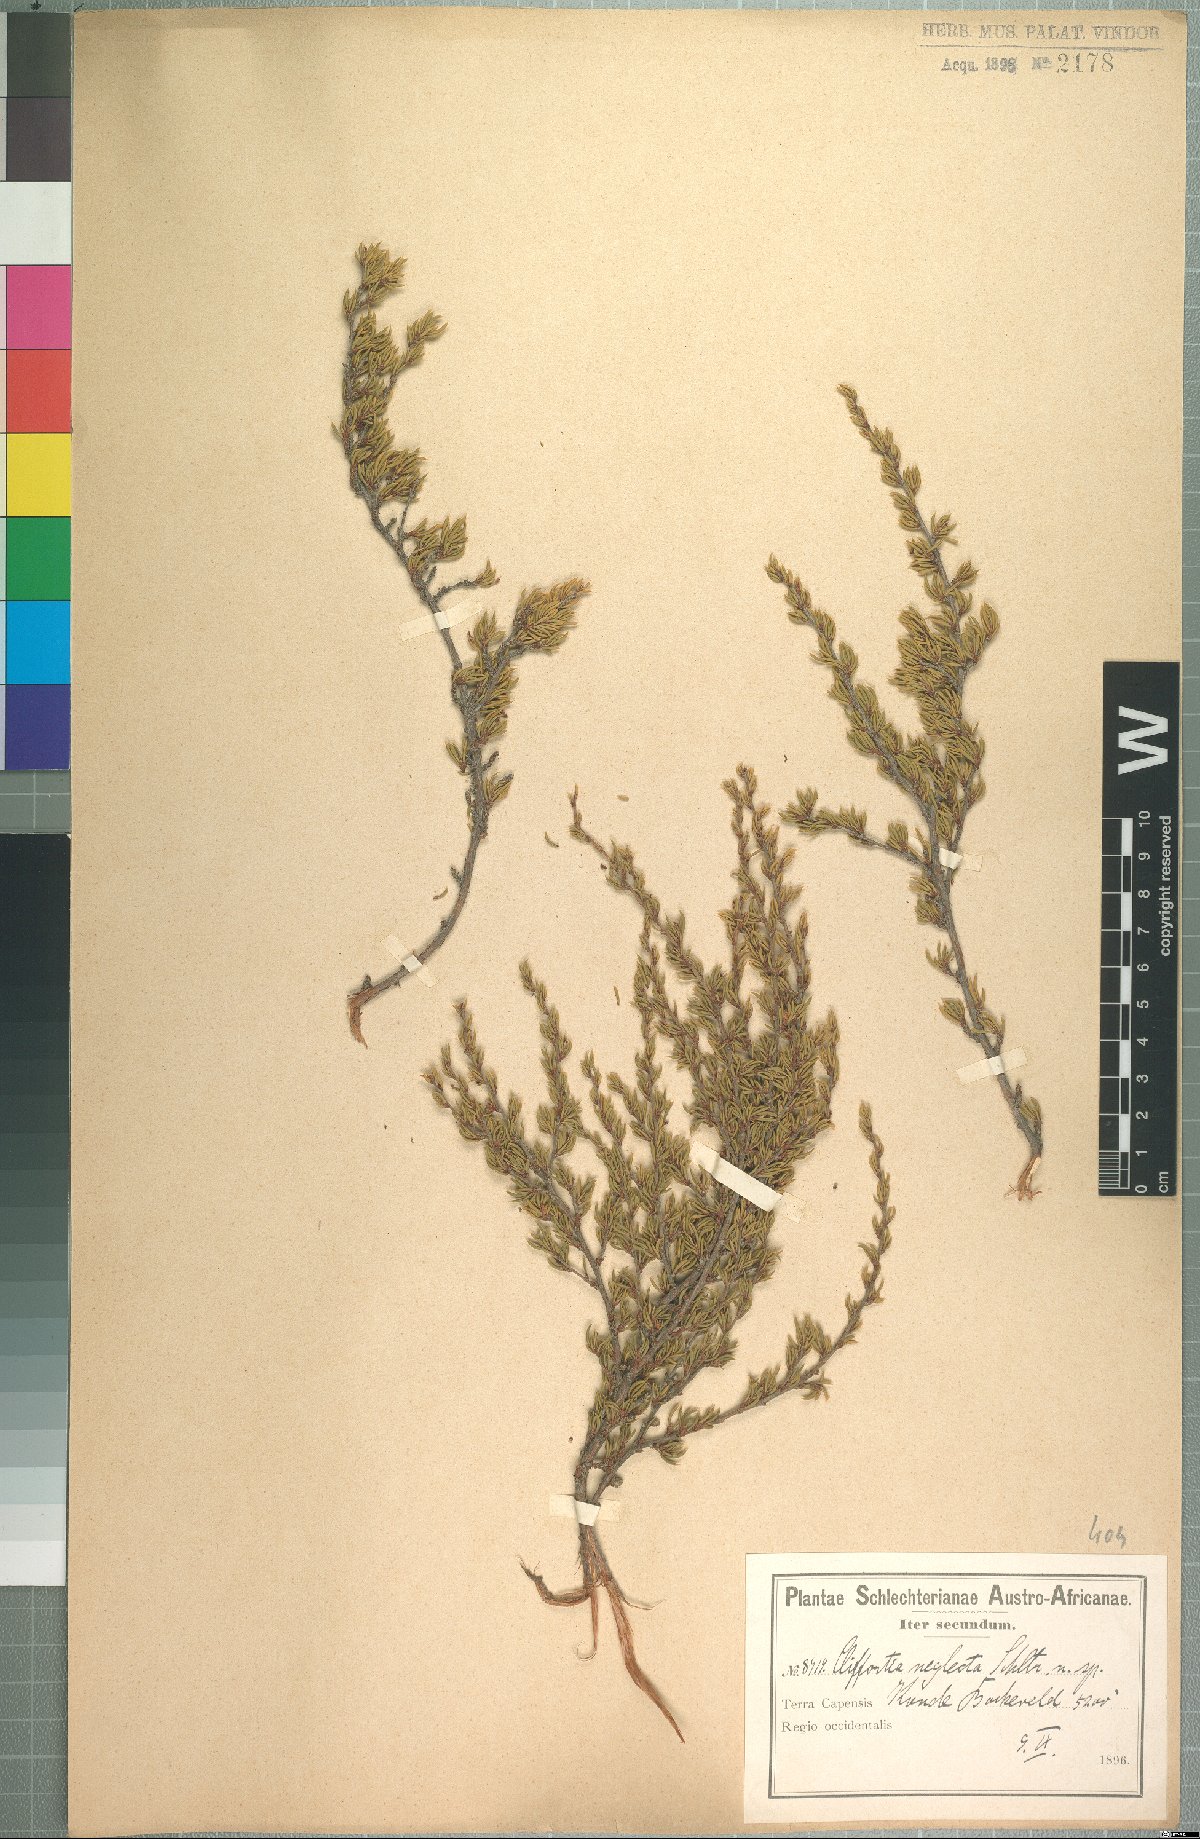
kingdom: Plantae
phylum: Tracheophyta
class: Magnoliopsida
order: Rosales
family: Rosaceae
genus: Cliffortia
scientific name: Cliffortia neglecta
